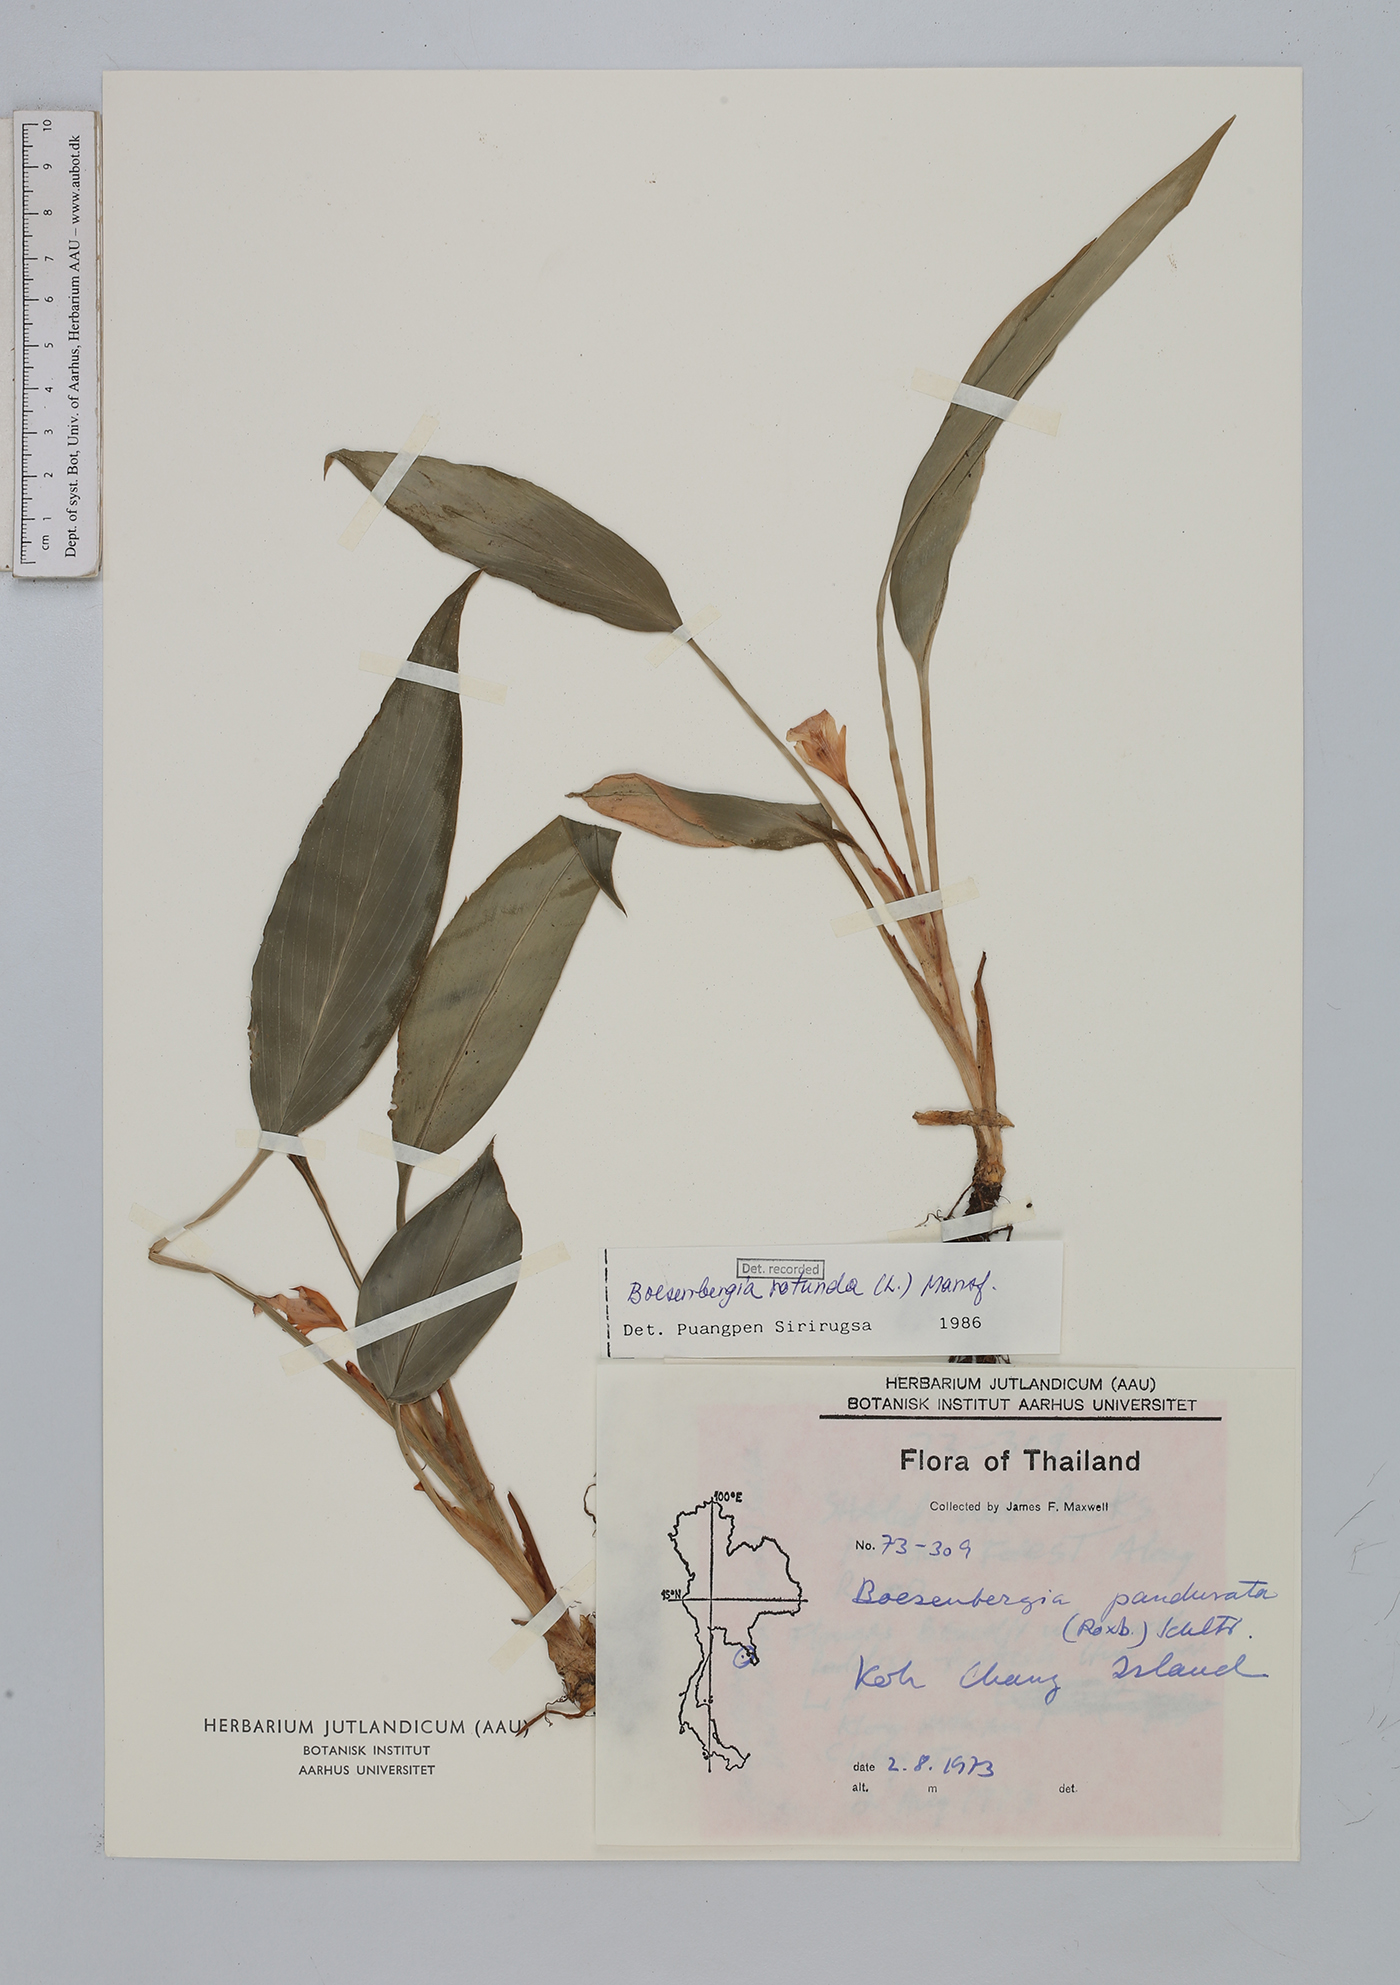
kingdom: Plantae
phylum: Tracheophyta
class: Liliopsida
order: Zingiberales
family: Zingiberaceae
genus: Boesenbergia
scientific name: Boesenbergia rotunda
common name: Chinese ginger
